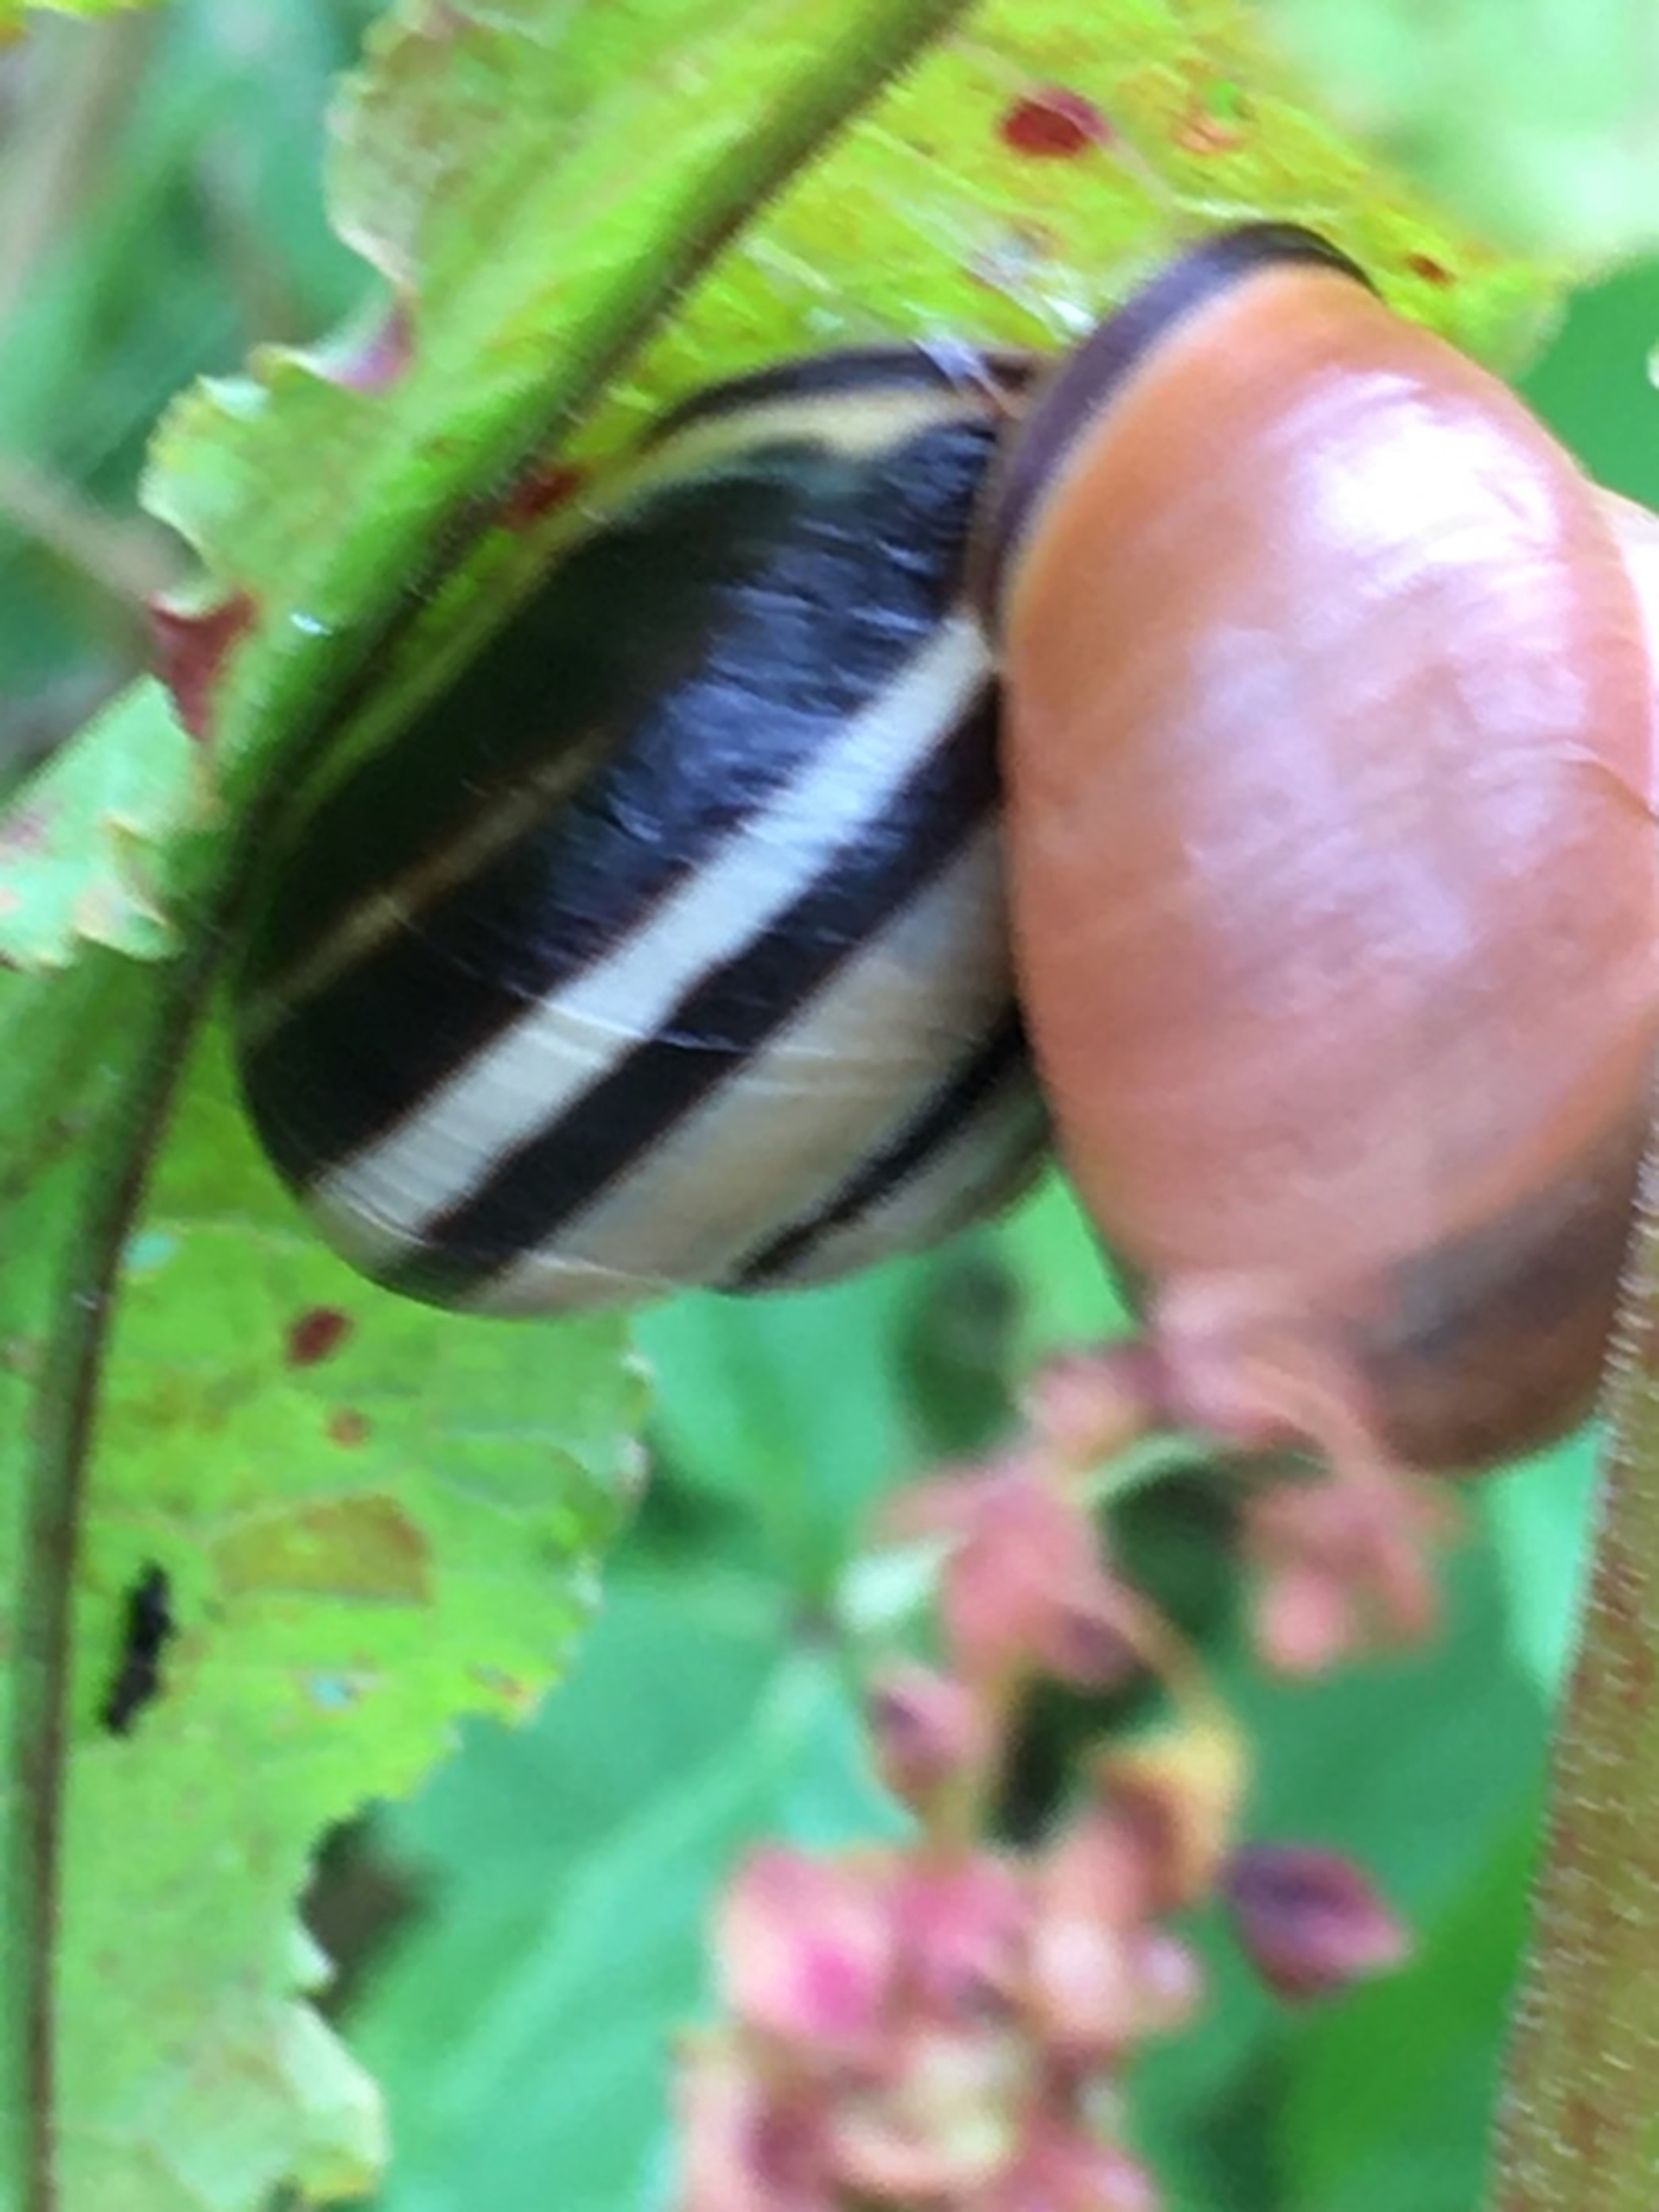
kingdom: Animalia
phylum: Mollusca
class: Gastropoda
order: Stylommatophora
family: Helicidae
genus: Cepaea
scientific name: Cepaea nemoralis
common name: Lundsnegl
